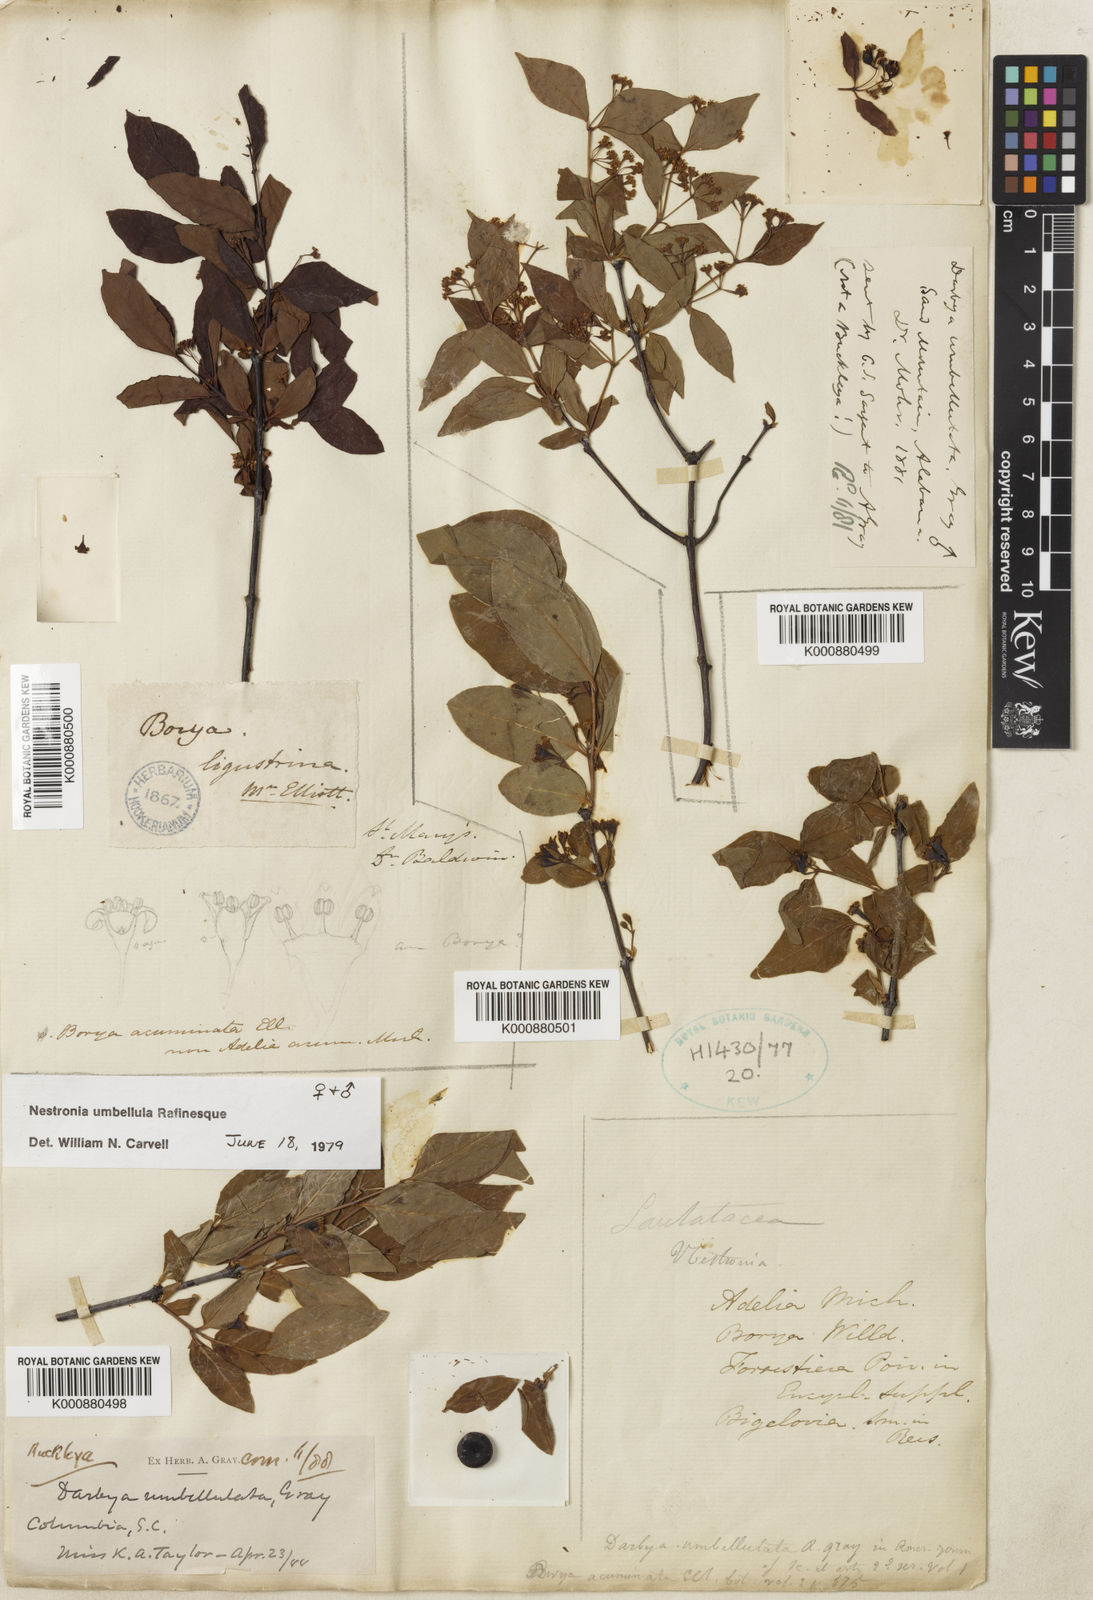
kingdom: Plantae
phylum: Tracheophyta
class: Magnoliopsida
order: Santalales
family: Santalaceae
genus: Nestronia
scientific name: Nestronia umbellula
